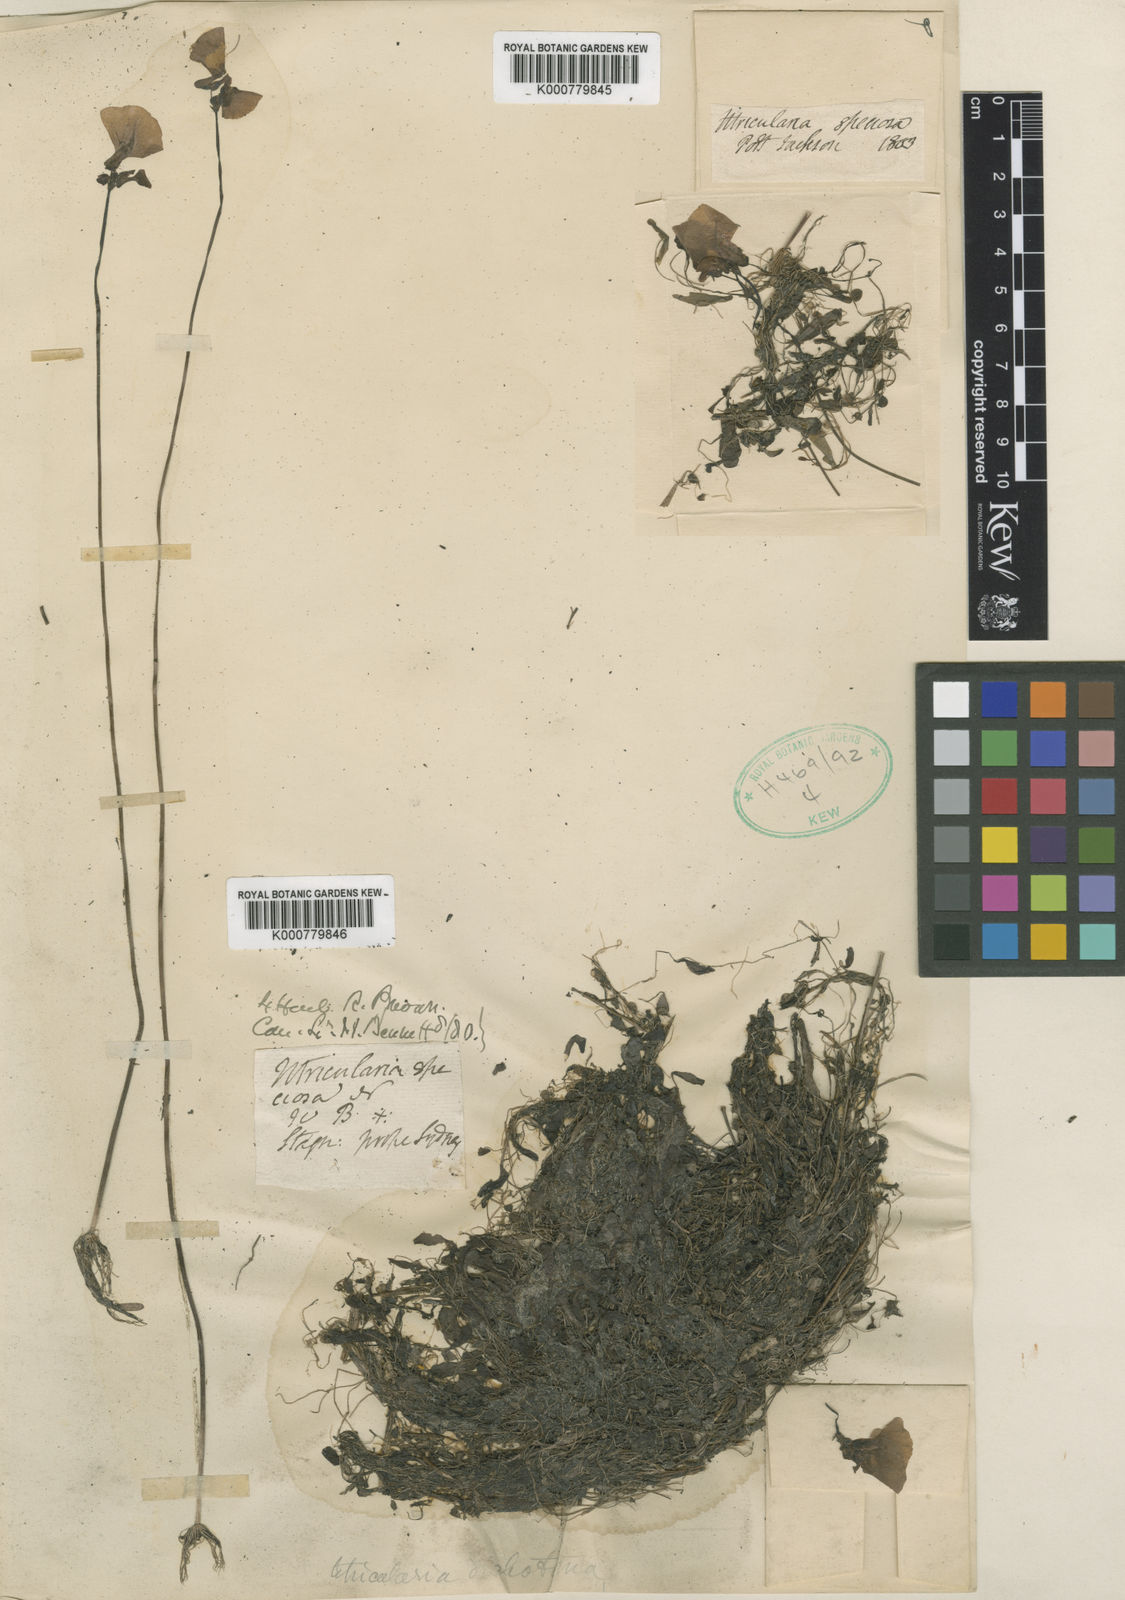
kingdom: Plantae
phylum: Tracheophyta
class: Magnoliopsida
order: Lamiales
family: Lentibulariaceae
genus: Utricularia
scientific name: Utricularia dichotoma
